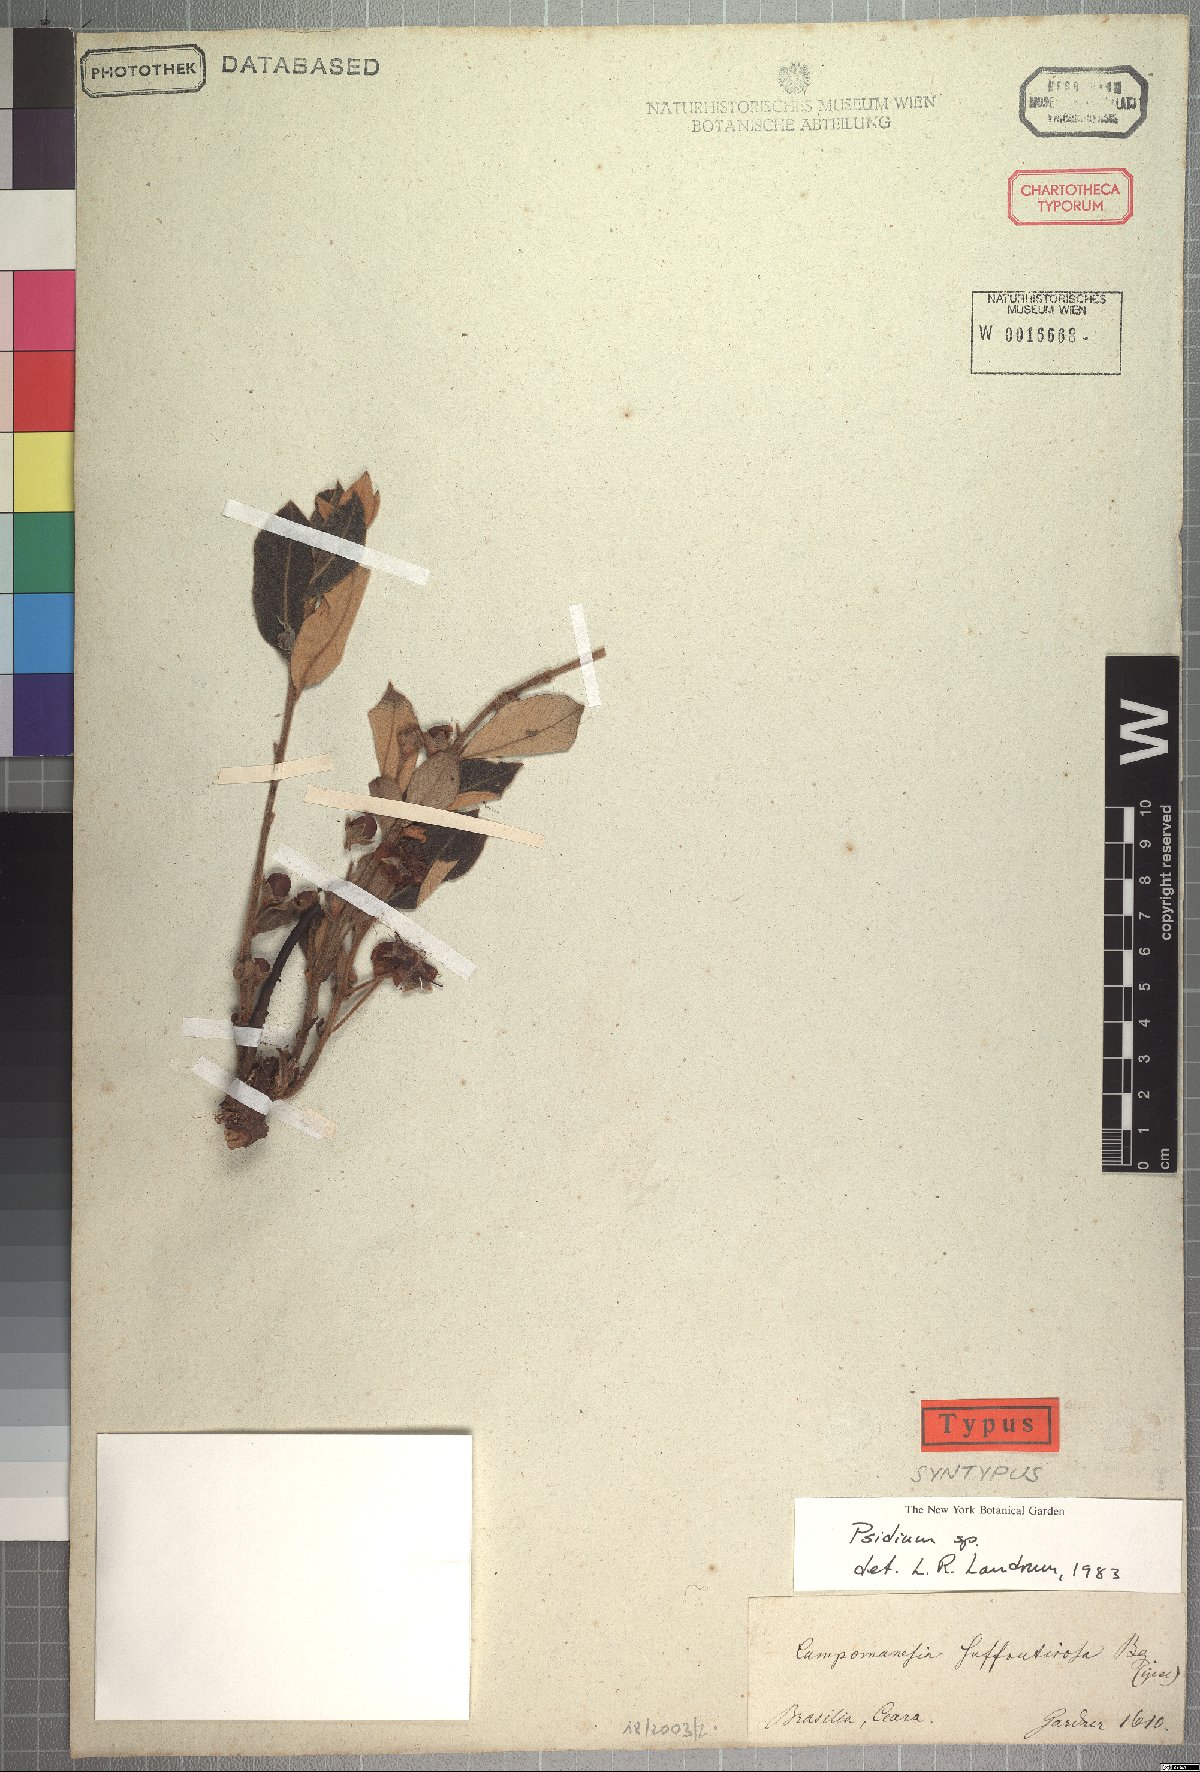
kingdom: Plantae
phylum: Tracheophyta
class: Magnoliopsida
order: Myrtales
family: Myrtaceae
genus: Psidium
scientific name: Psidium larueotteanum
